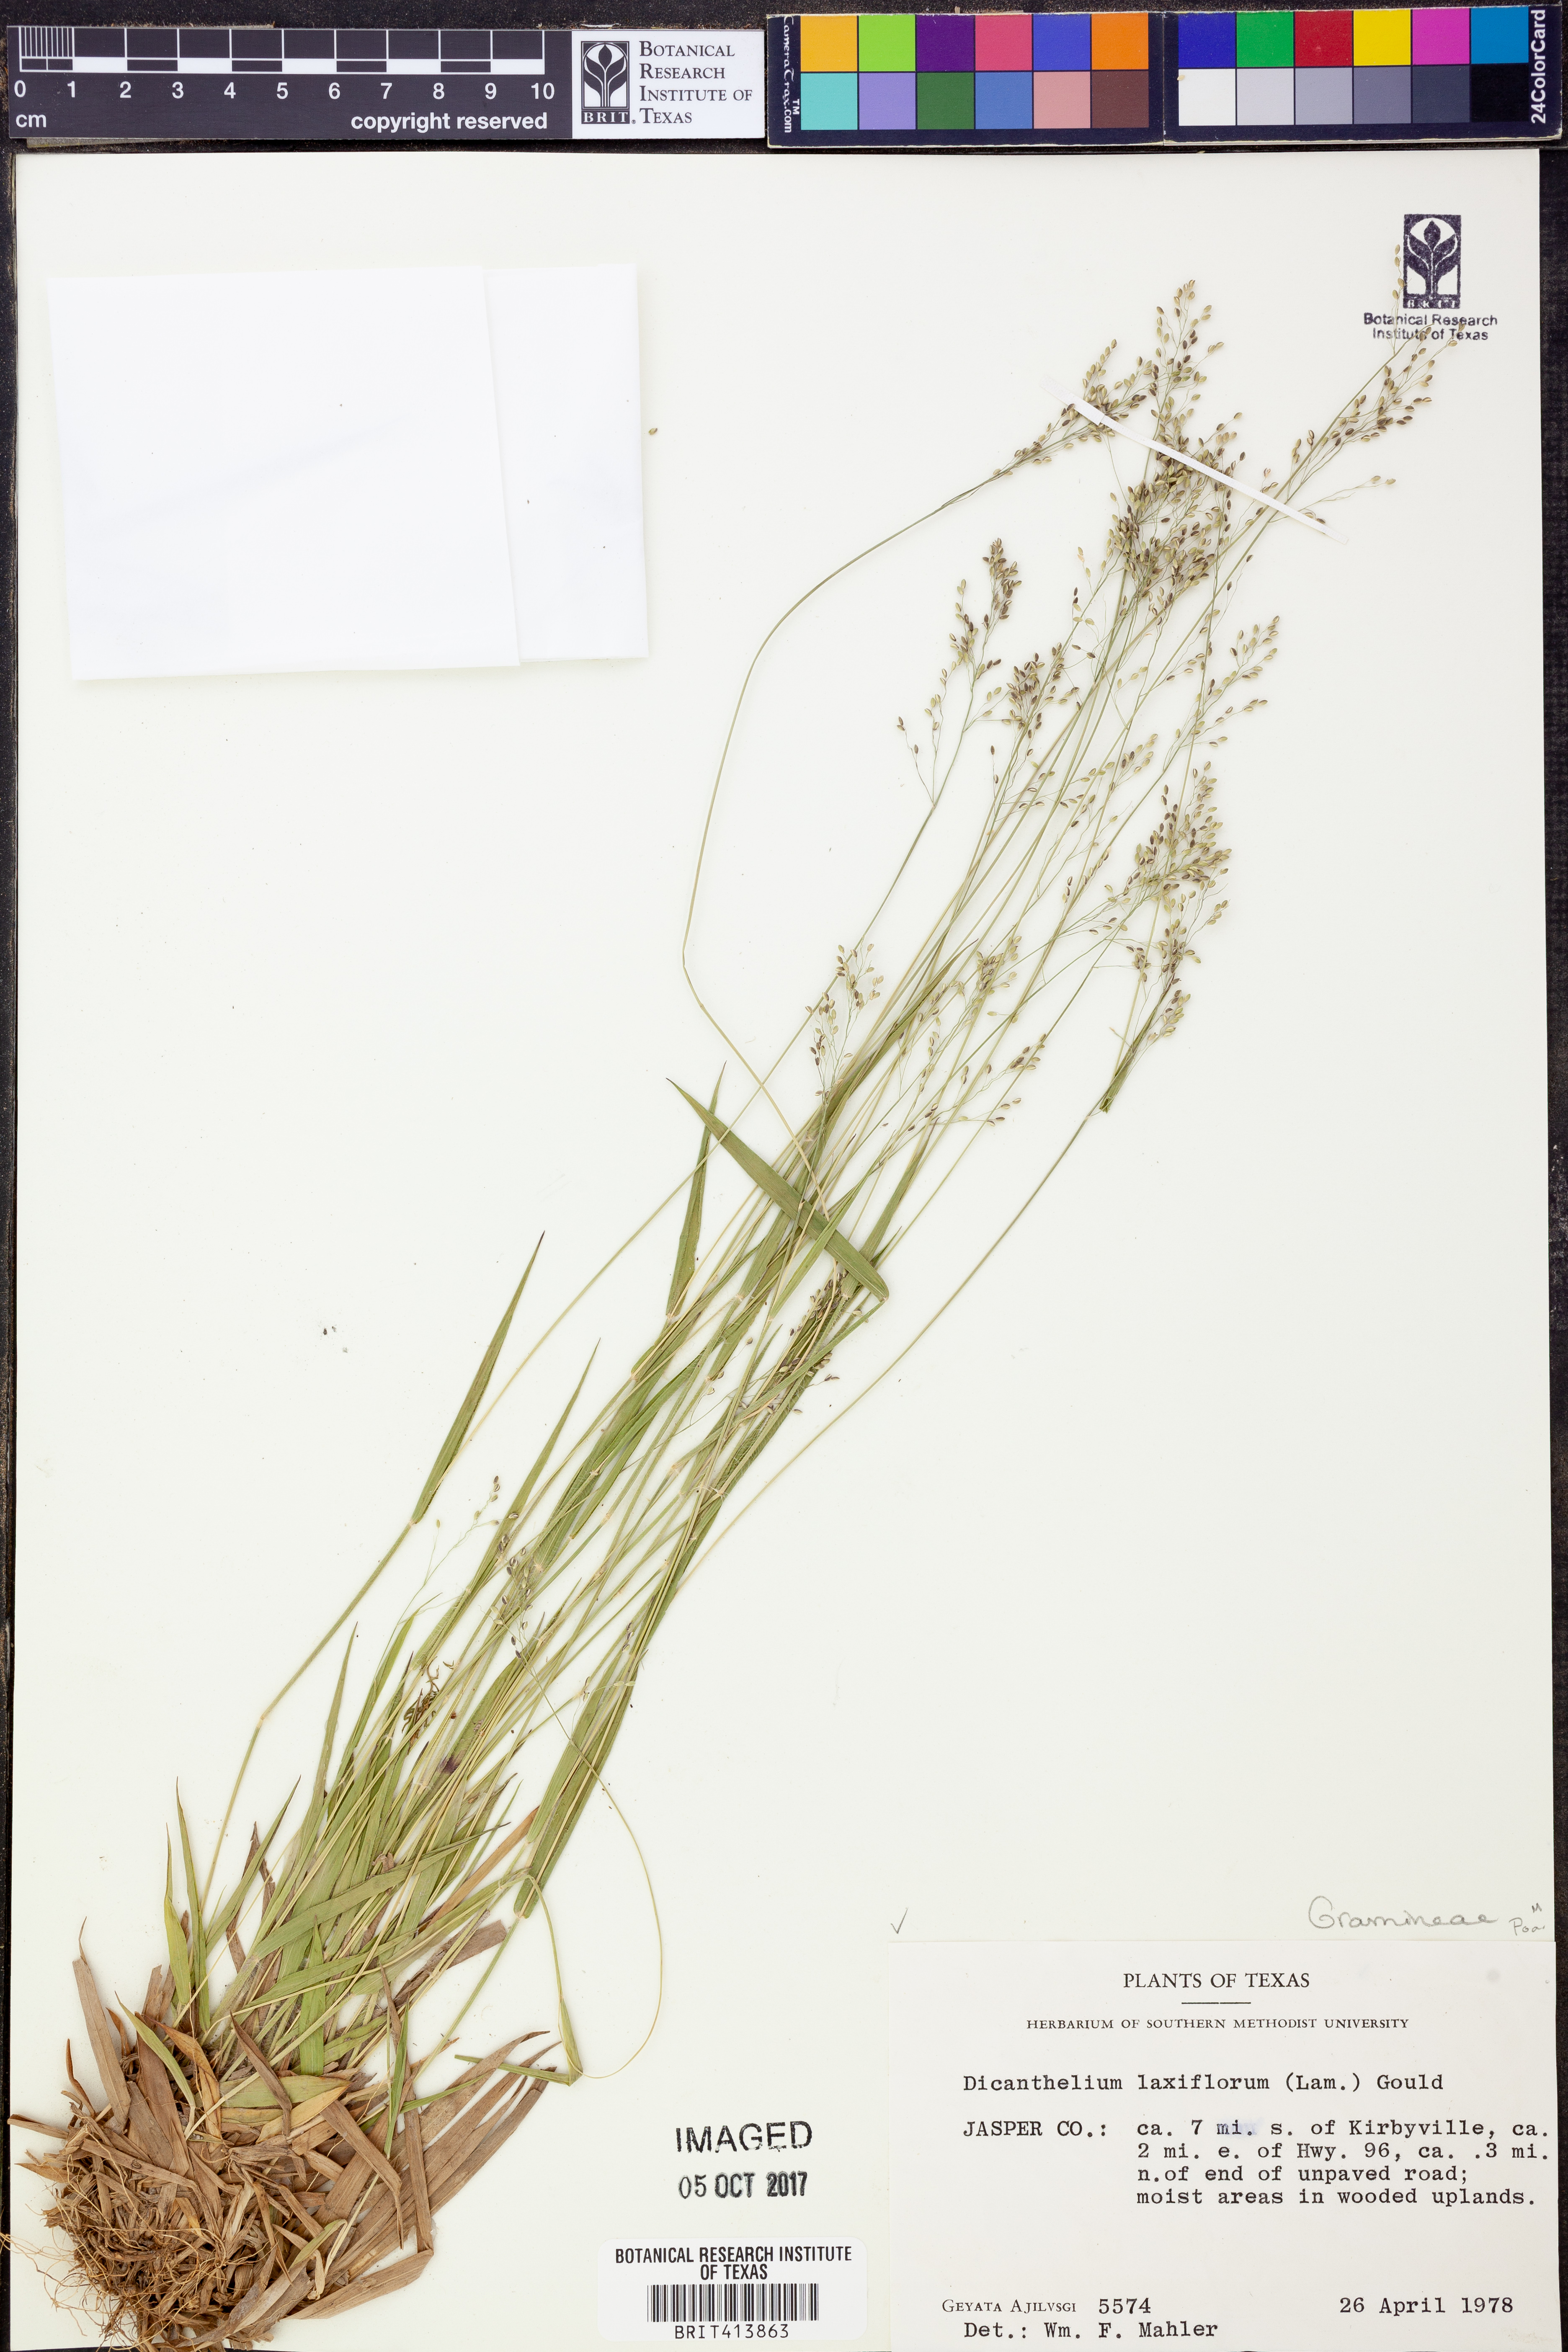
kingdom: Plantae
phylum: Tracheophyta
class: Liliopsida
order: Poales
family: Poaceae
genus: Dichanthelium
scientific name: Dichanthelium laxiflorum
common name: Soft-tuft panic grass
